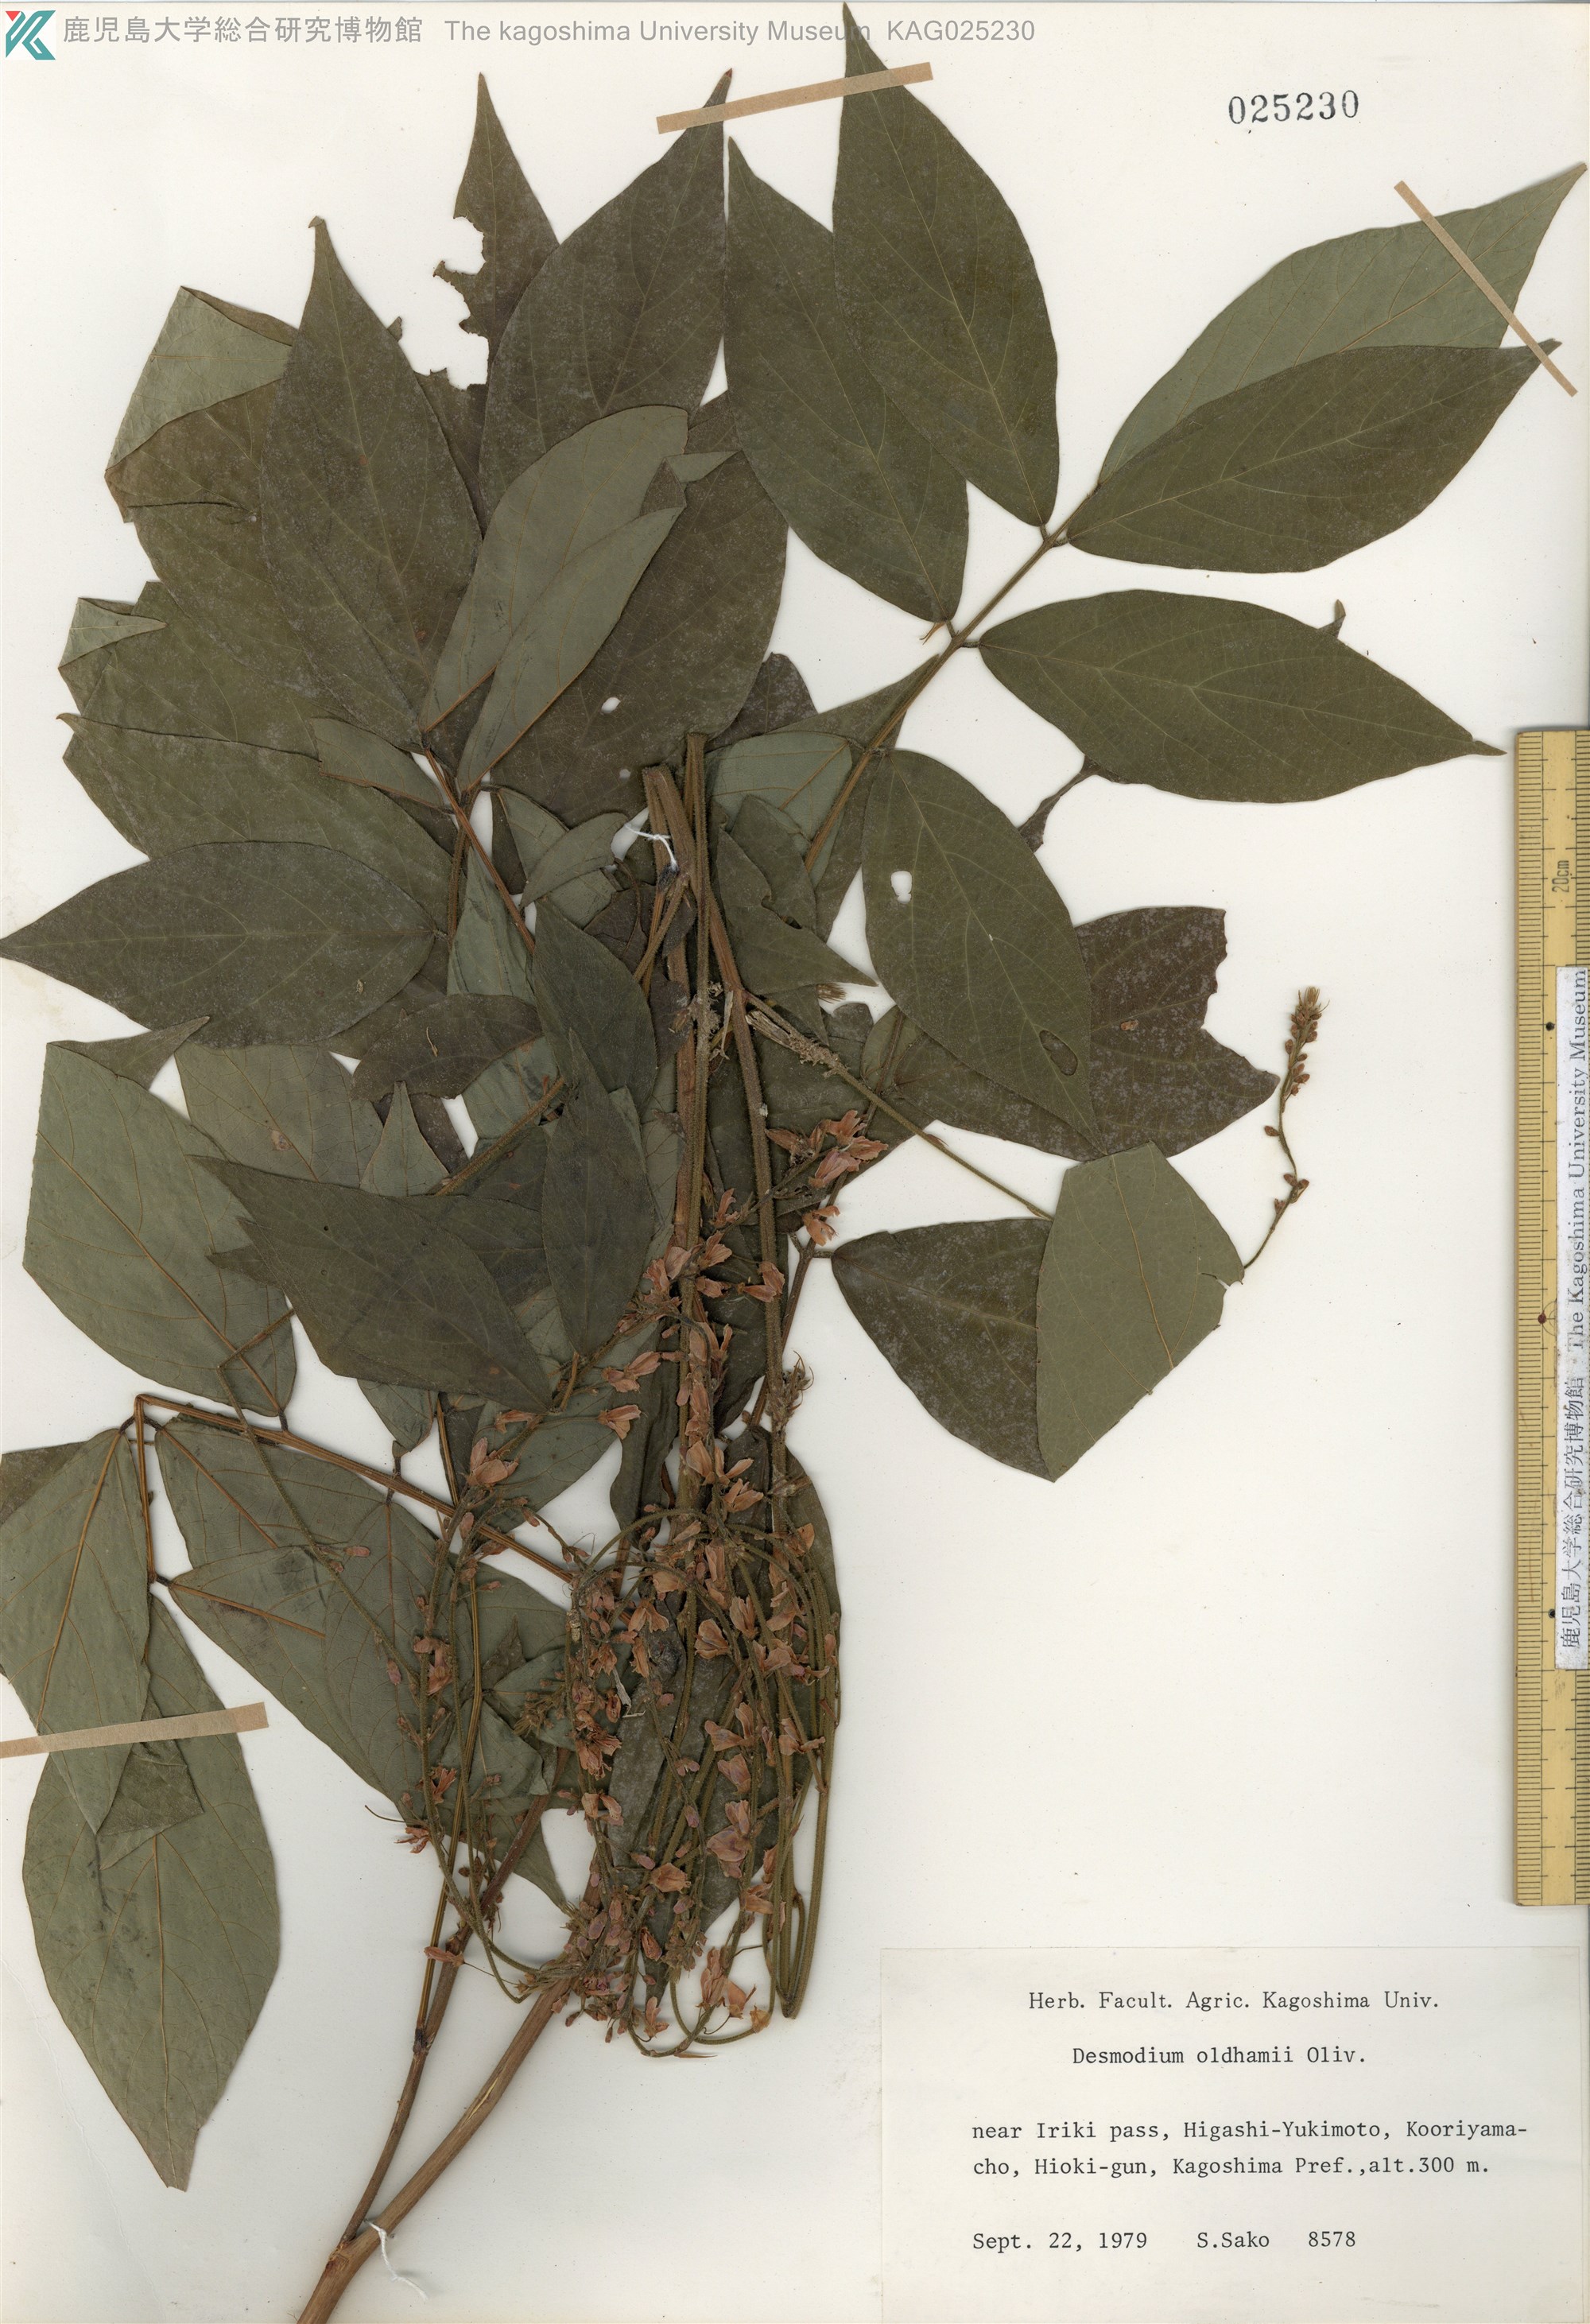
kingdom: Plantae
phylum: Tracheophyta
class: Magnoliopsida
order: Fabales
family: Fabaceae
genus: Hylodesmum
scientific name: Hylodesmum oldhamii
